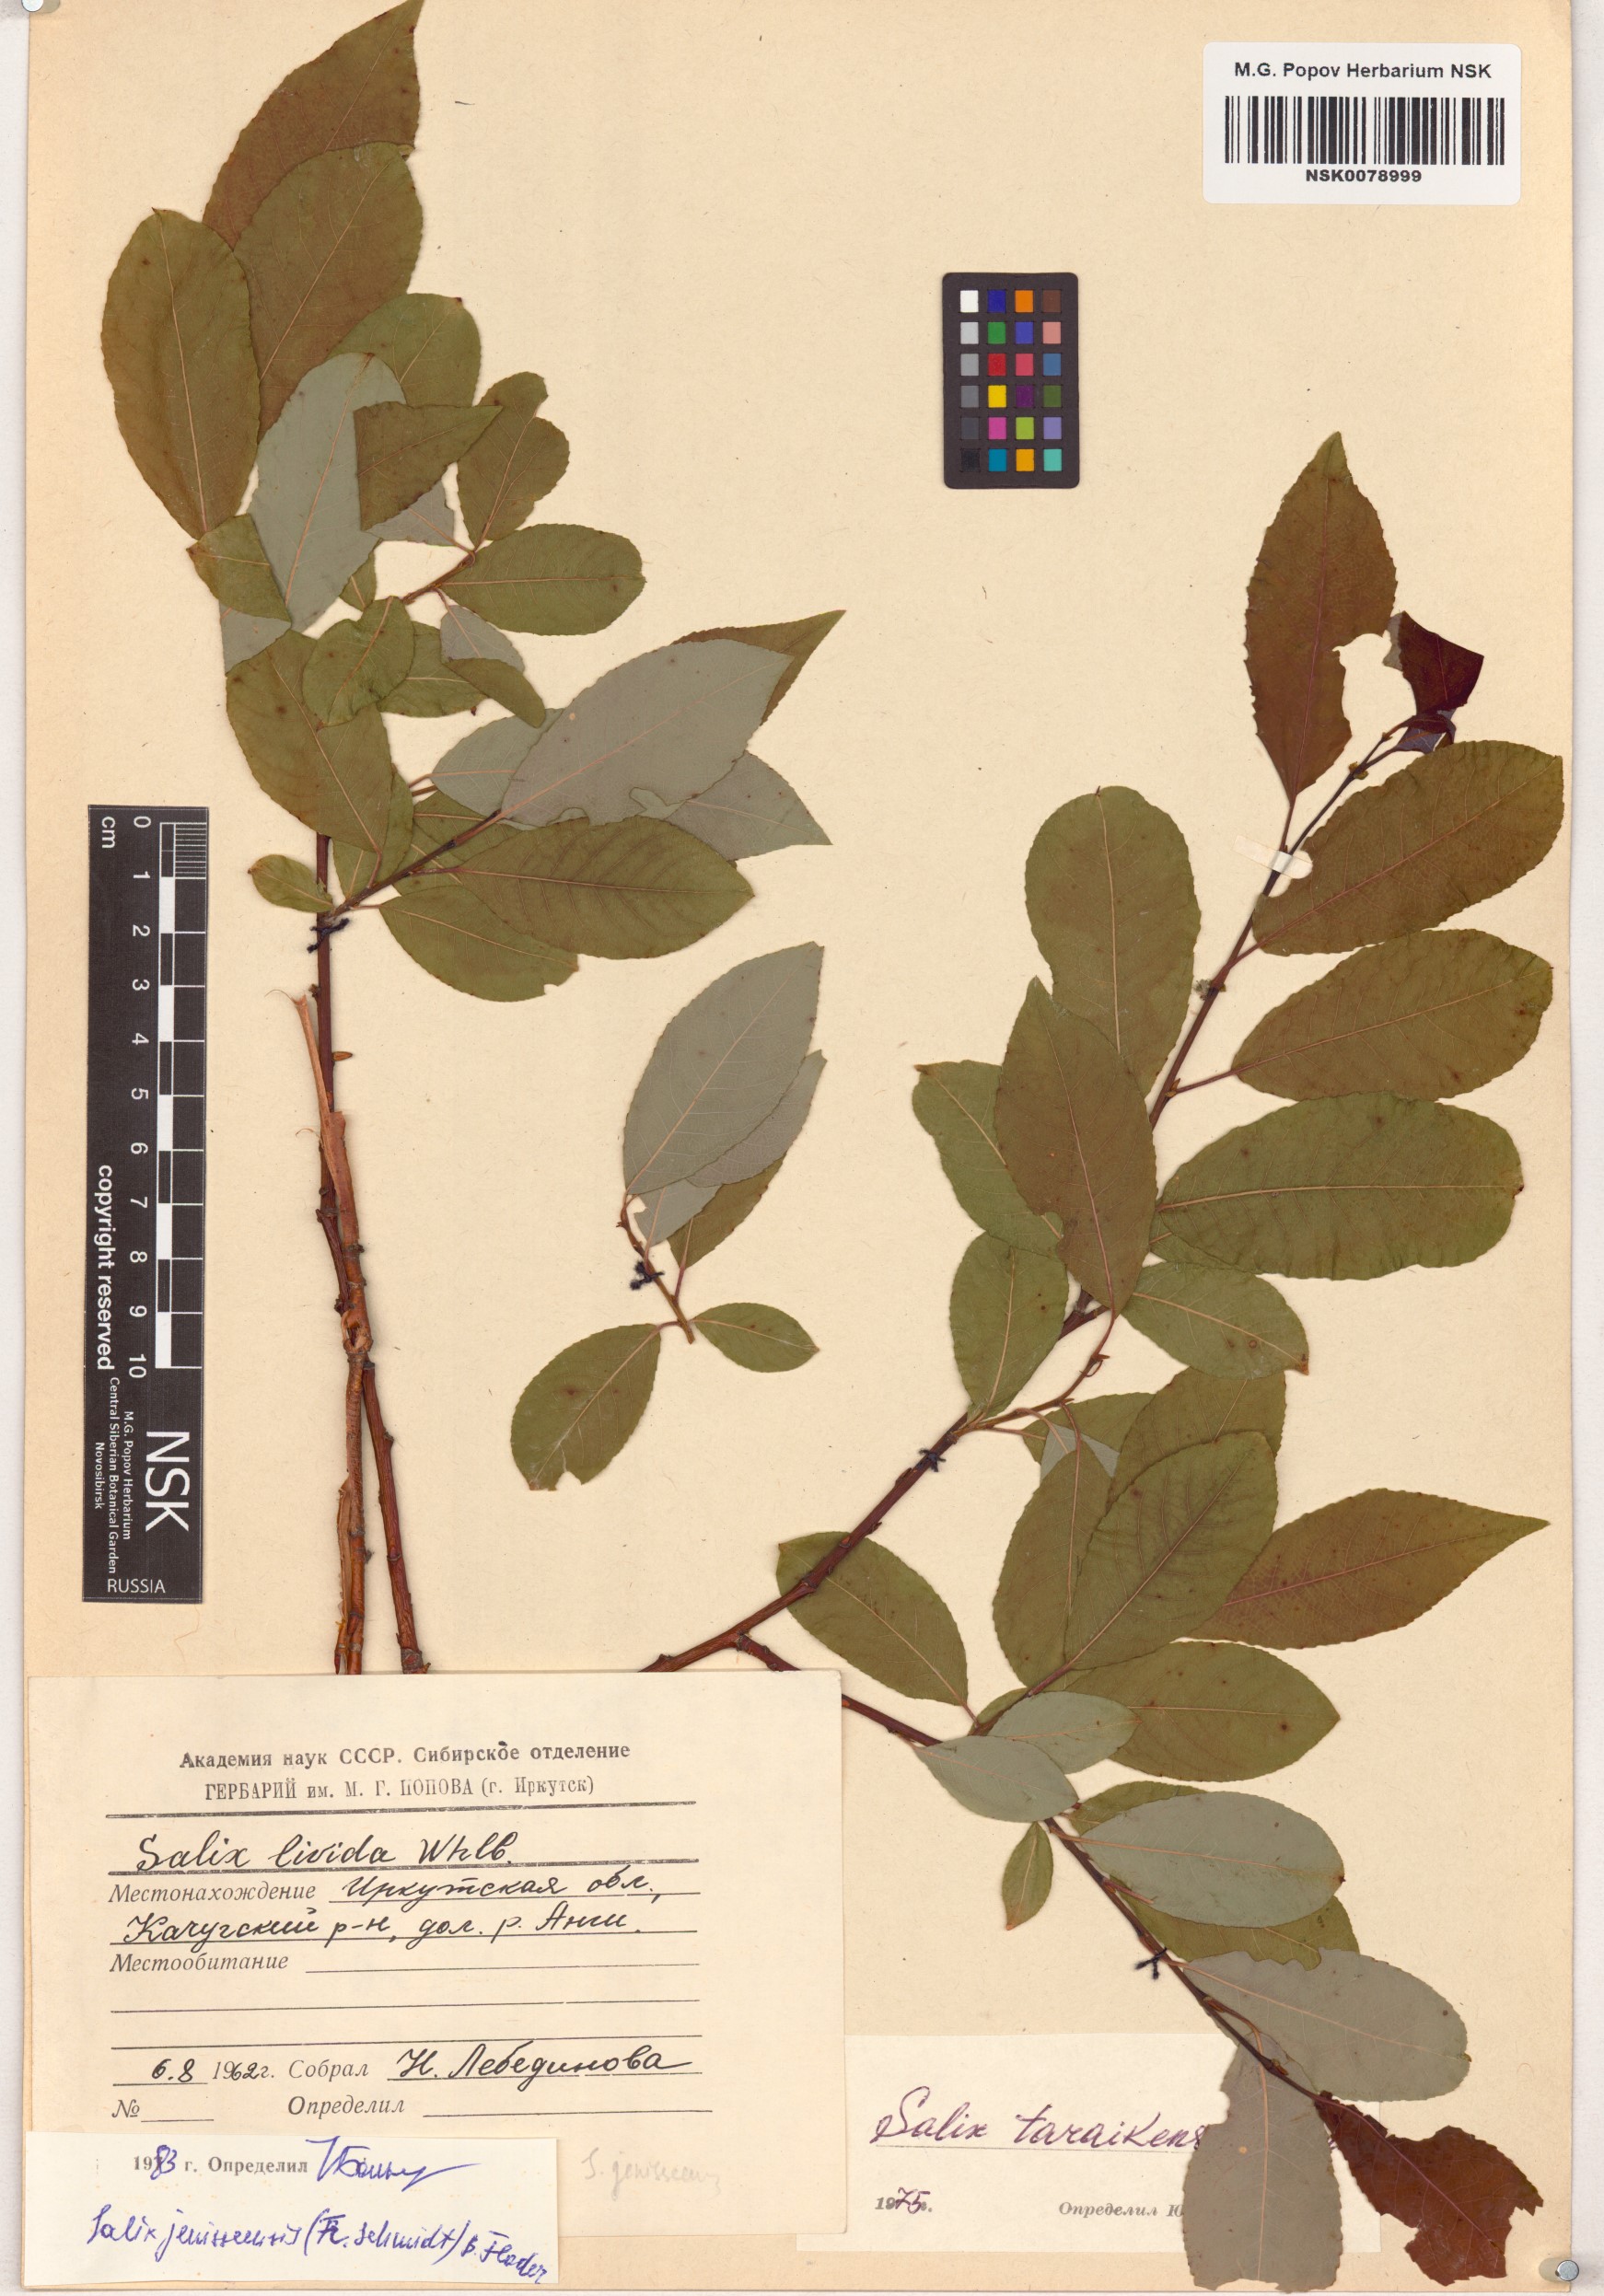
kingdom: Plantae
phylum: Tracheophyta
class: Magnoliopsida
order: Malpighiales
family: Salicaceae
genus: Salix
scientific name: Salix jenisseensis
